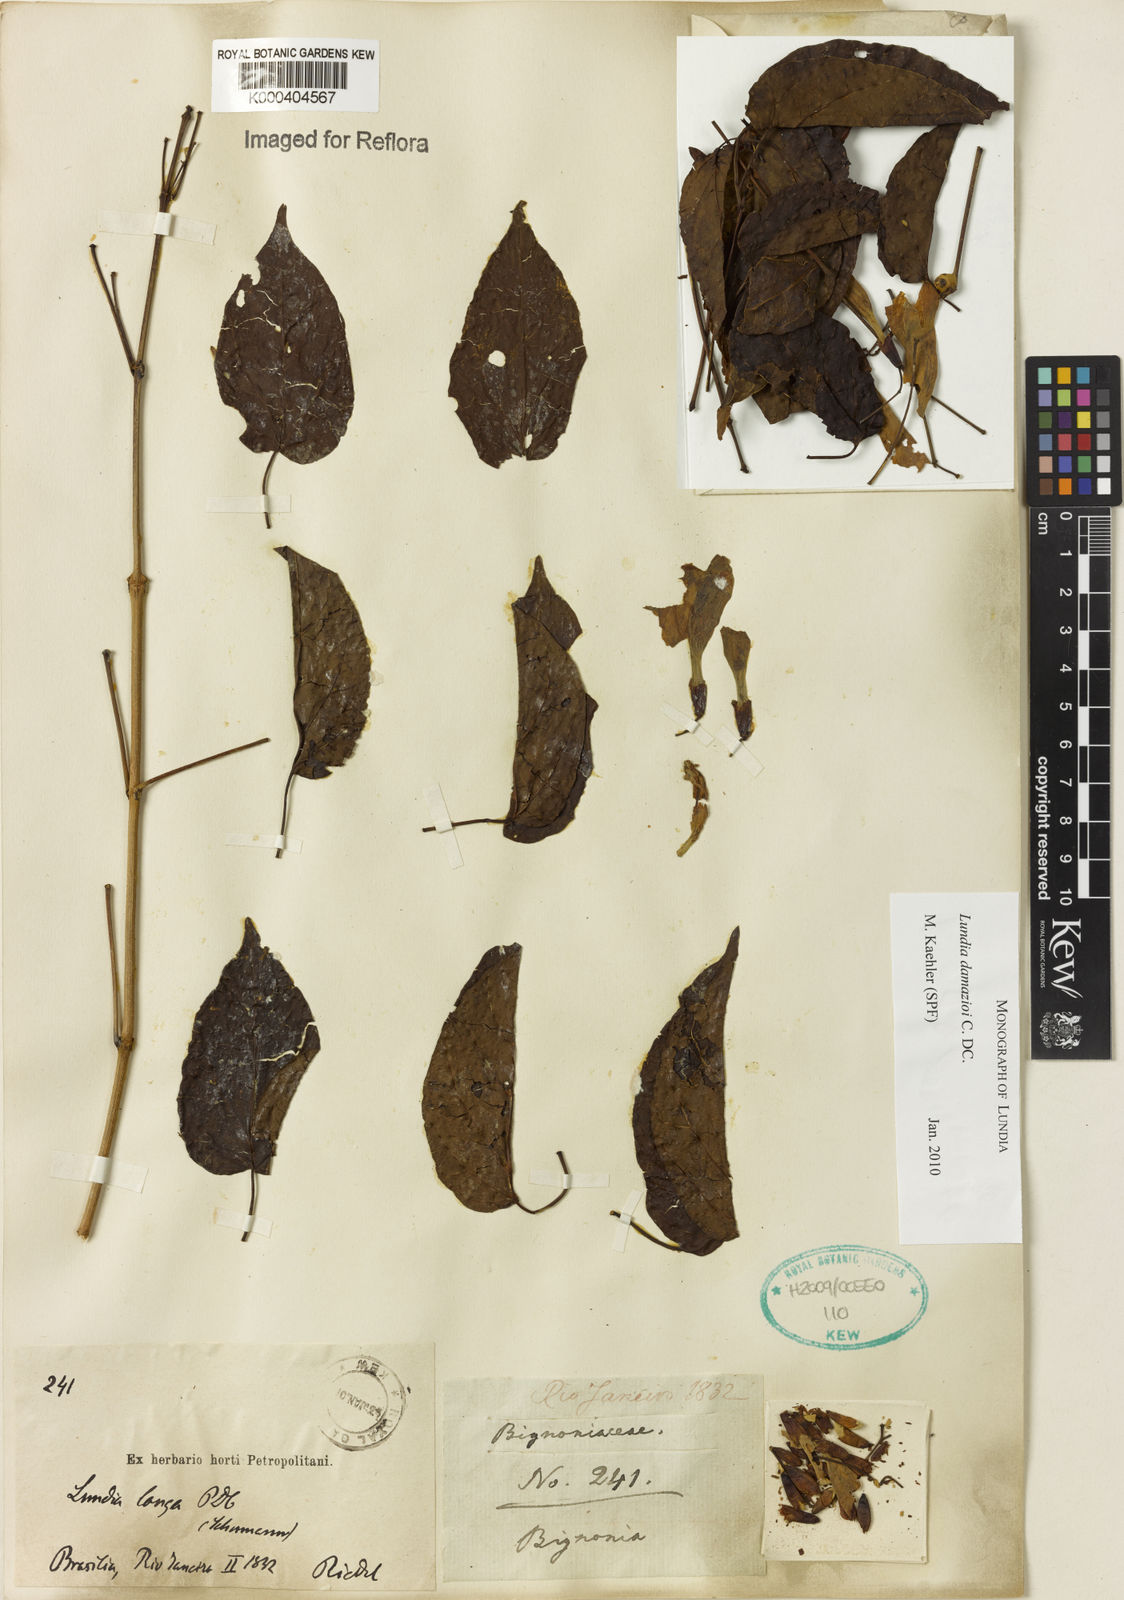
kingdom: Plantae
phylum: Tracheophyta
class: Magnoliopsida
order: Lamiales
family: Bignoniaceae
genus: Lundia
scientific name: Lundia
